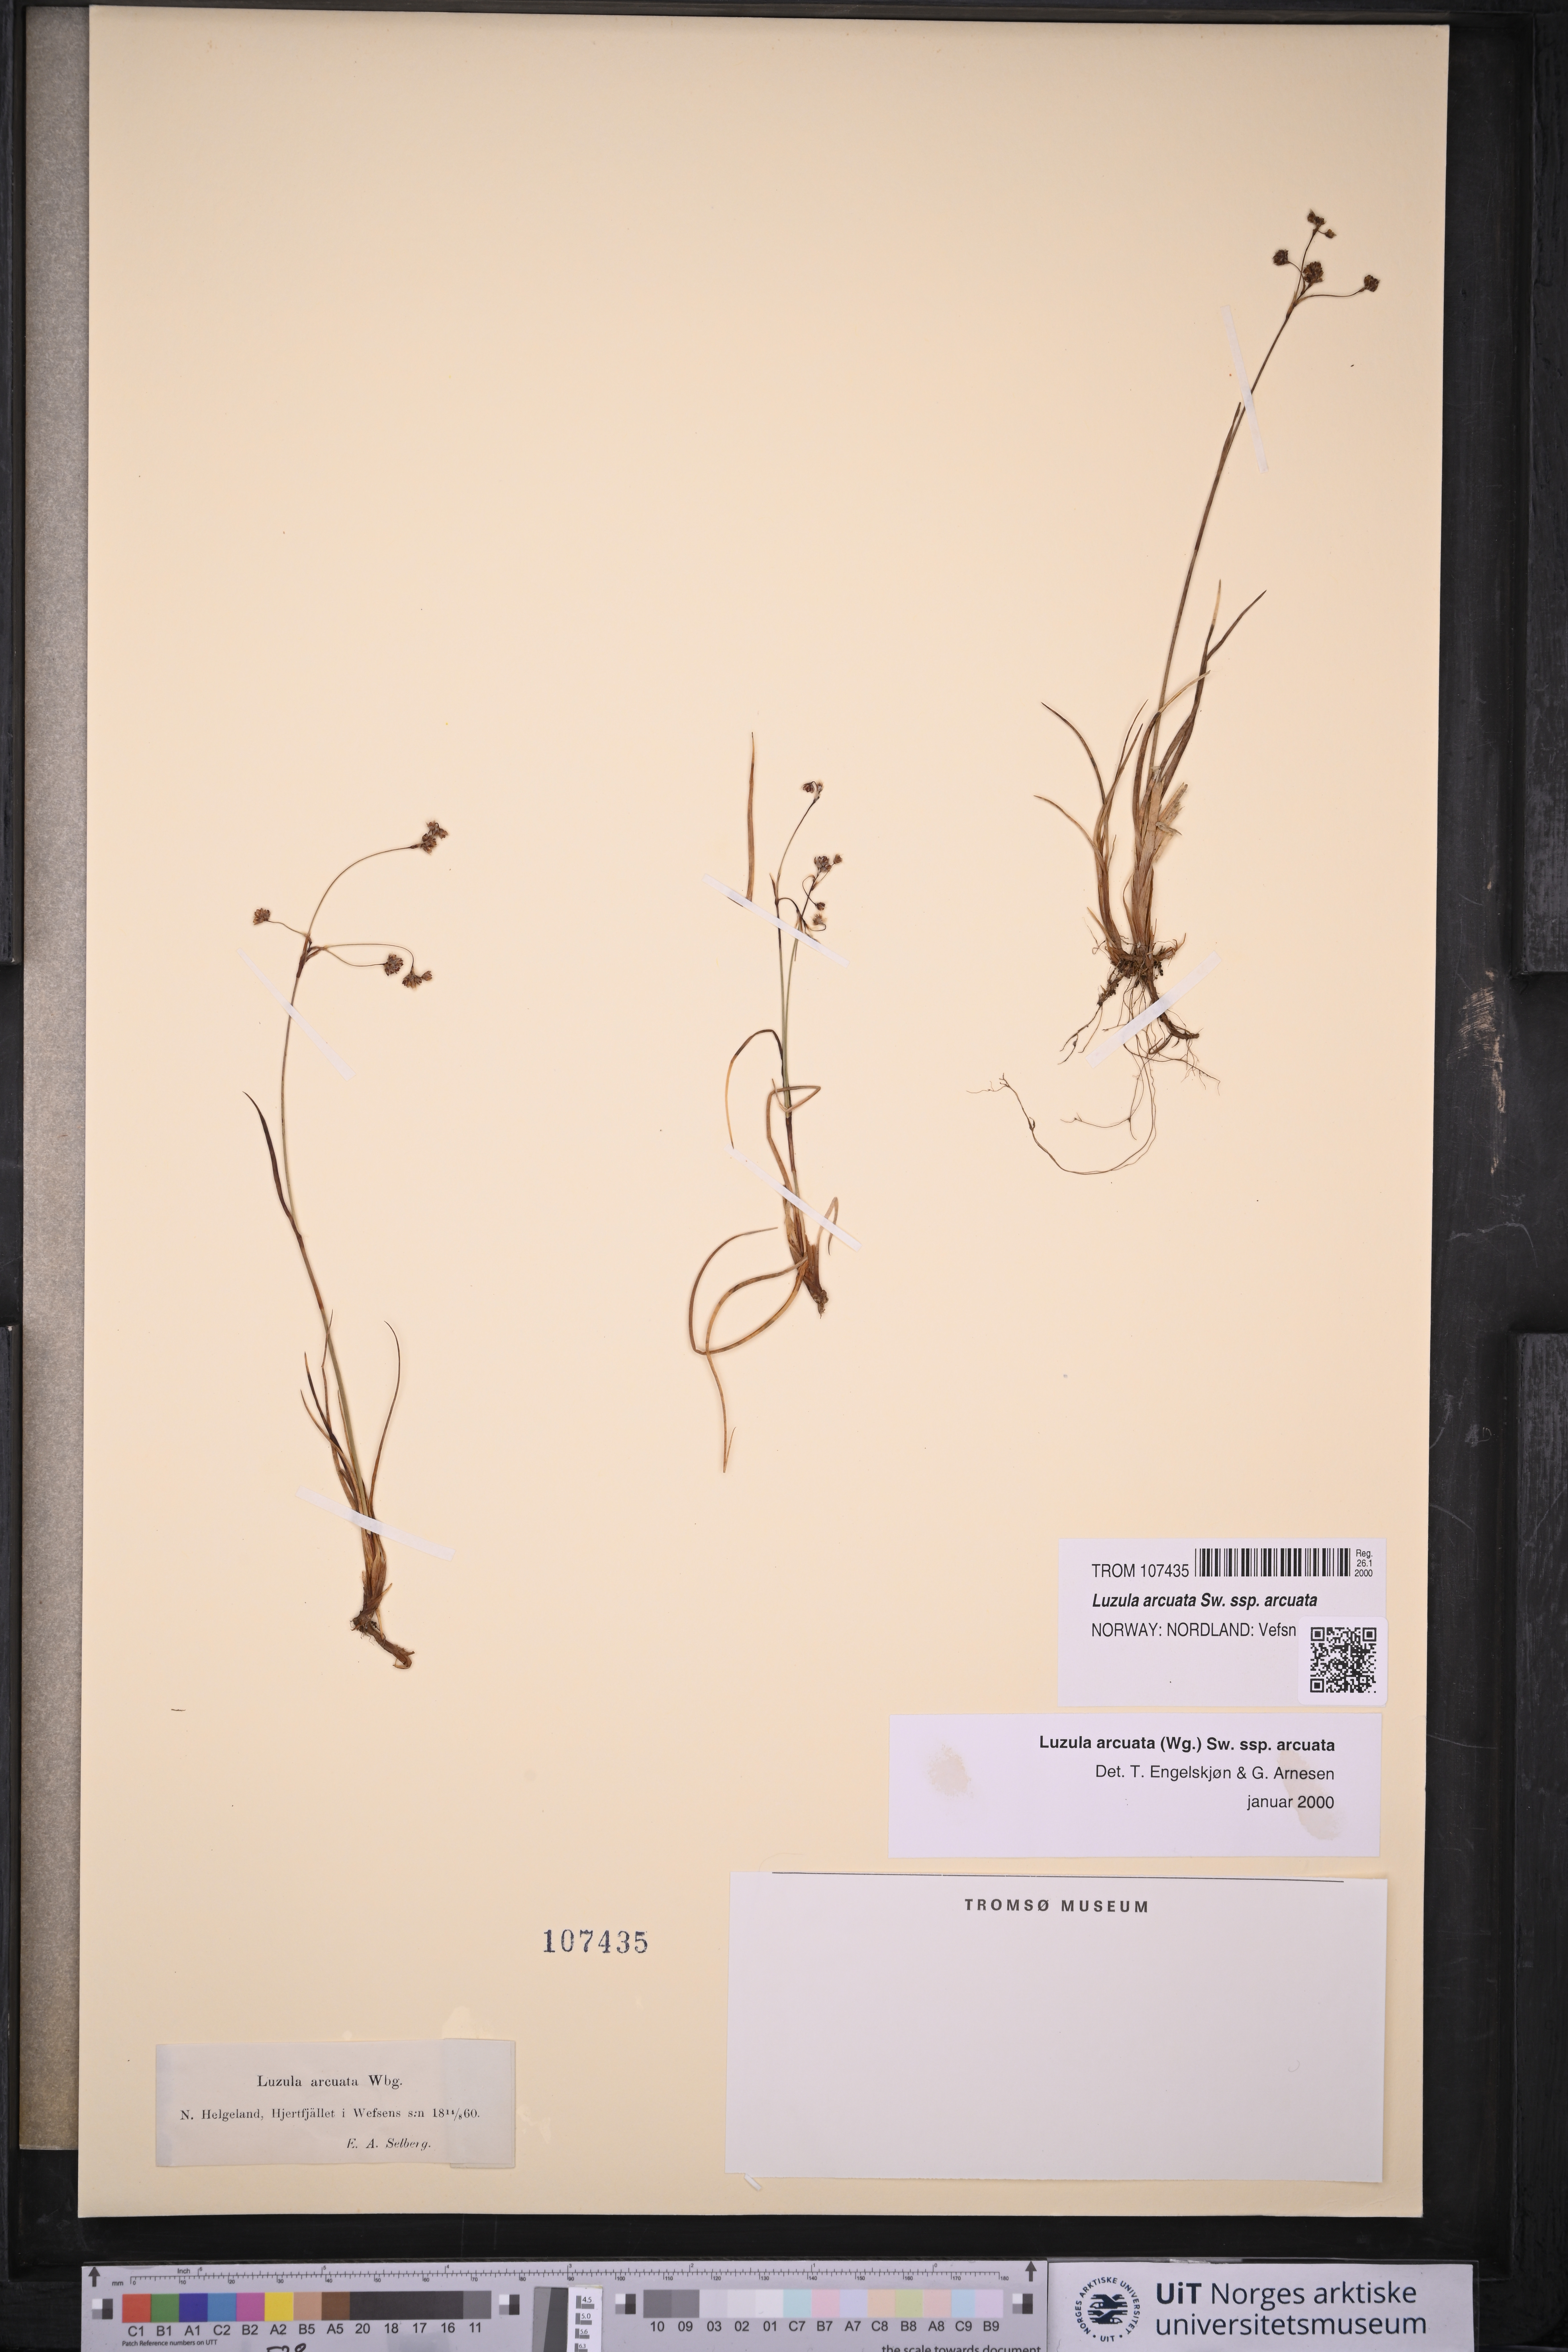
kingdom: Plantae
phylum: Tracheophyta
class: Liliopsida
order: Poales
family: Juncaceae
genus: Luzula
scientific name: Luzula arcuata
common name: Curved wood-rush
